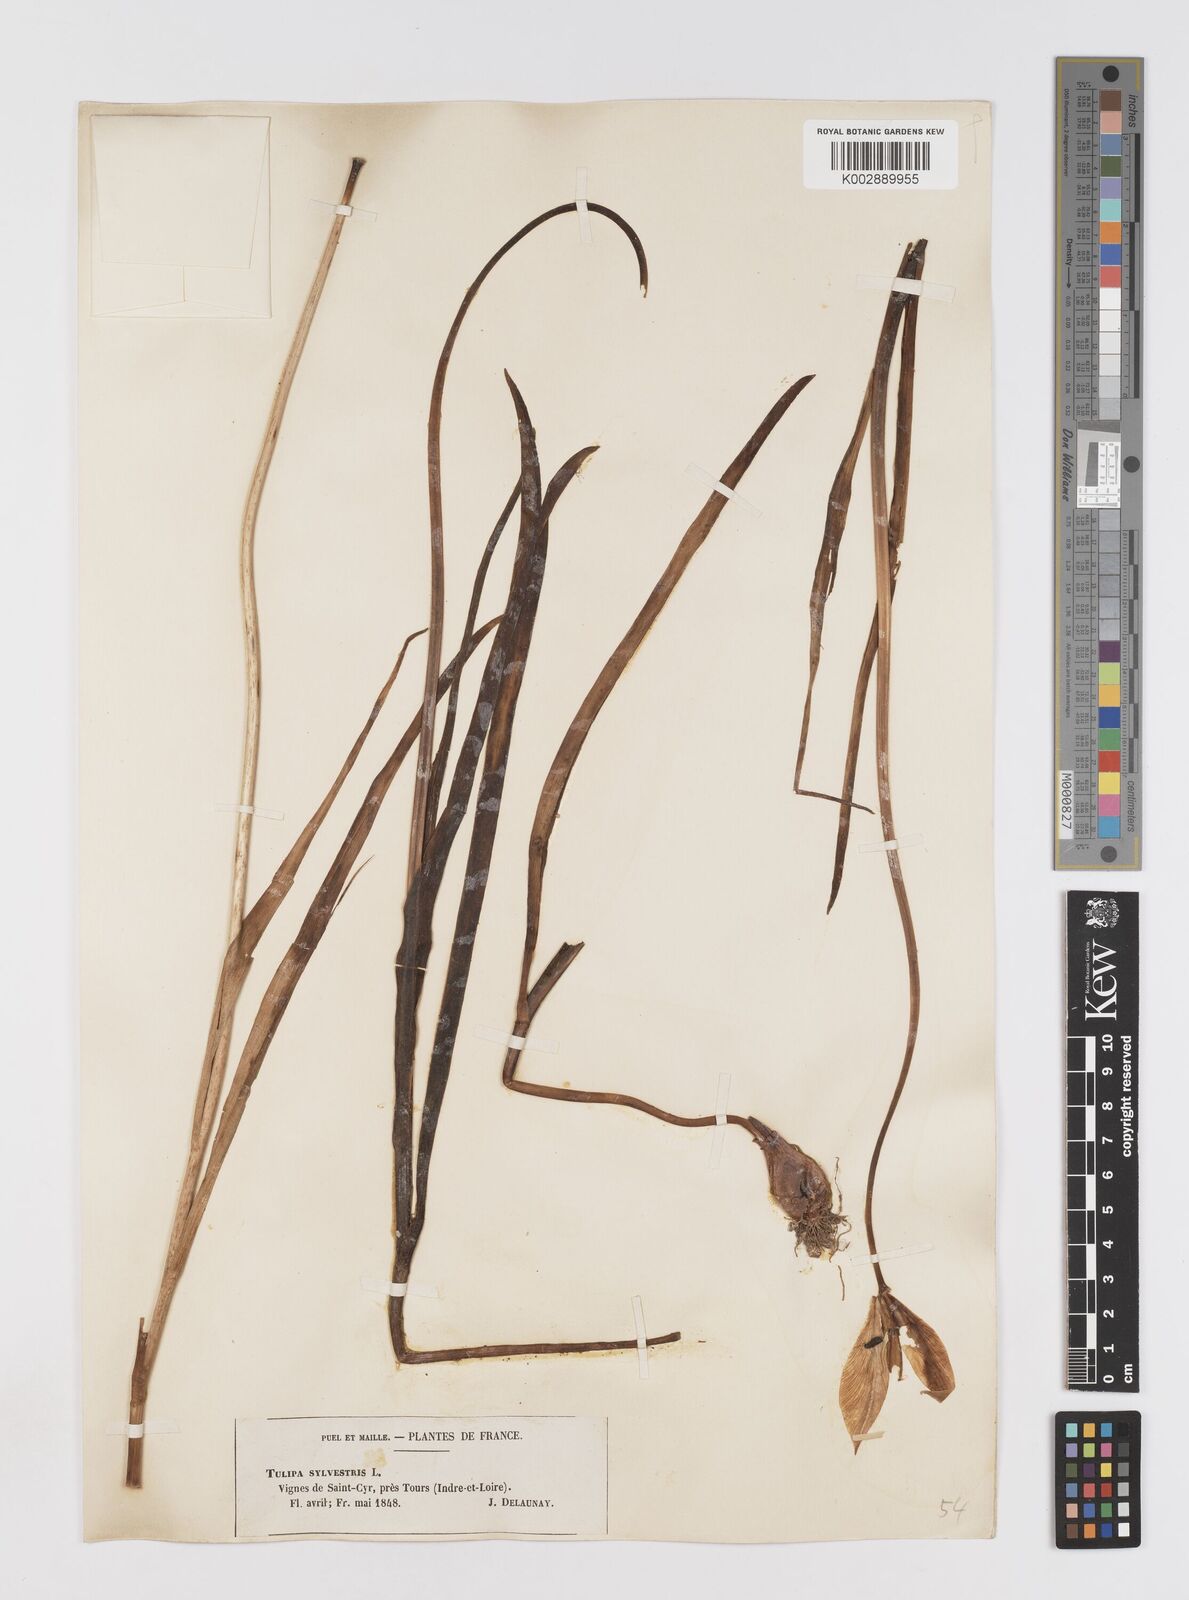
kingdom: Plantae
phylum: Tracheophyta
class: Liliopsida
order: Liliales
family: Liliaceae
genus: Tulipa
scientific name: Tulipa sylvestris
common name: Wild tulip
